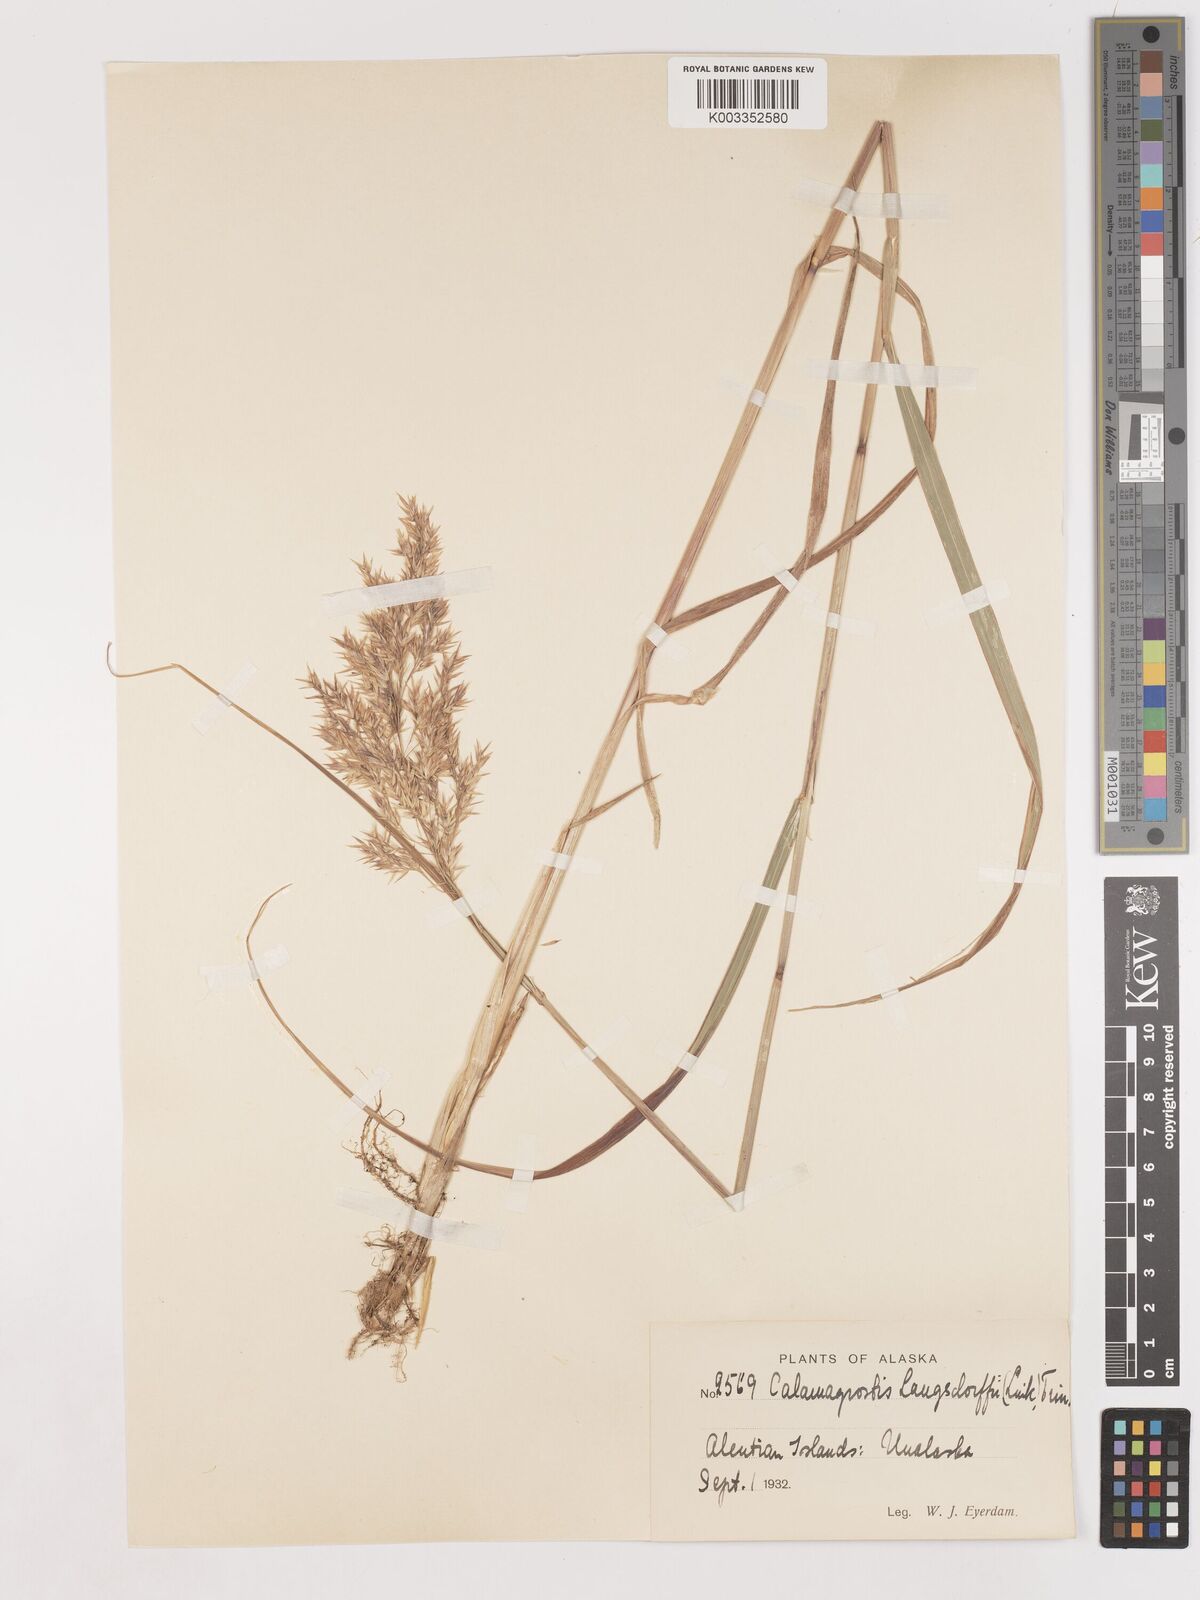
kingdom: Plantae
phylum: Tracheophyta
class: Liliopsida
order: Poales
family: Poaceae
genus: Calamagrostis
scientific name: Calamagrostis canadensis
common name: Canada bluejoint
